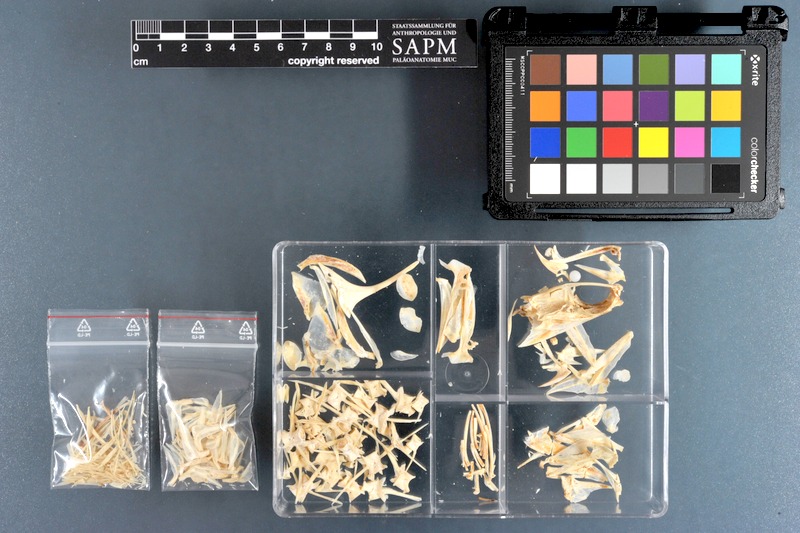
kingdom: Animalia
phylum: Chordata
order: Perciformes
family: Carangidae
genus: Scomberoides
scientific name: Scomberoides commersonnianus
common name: Talang queenfish
